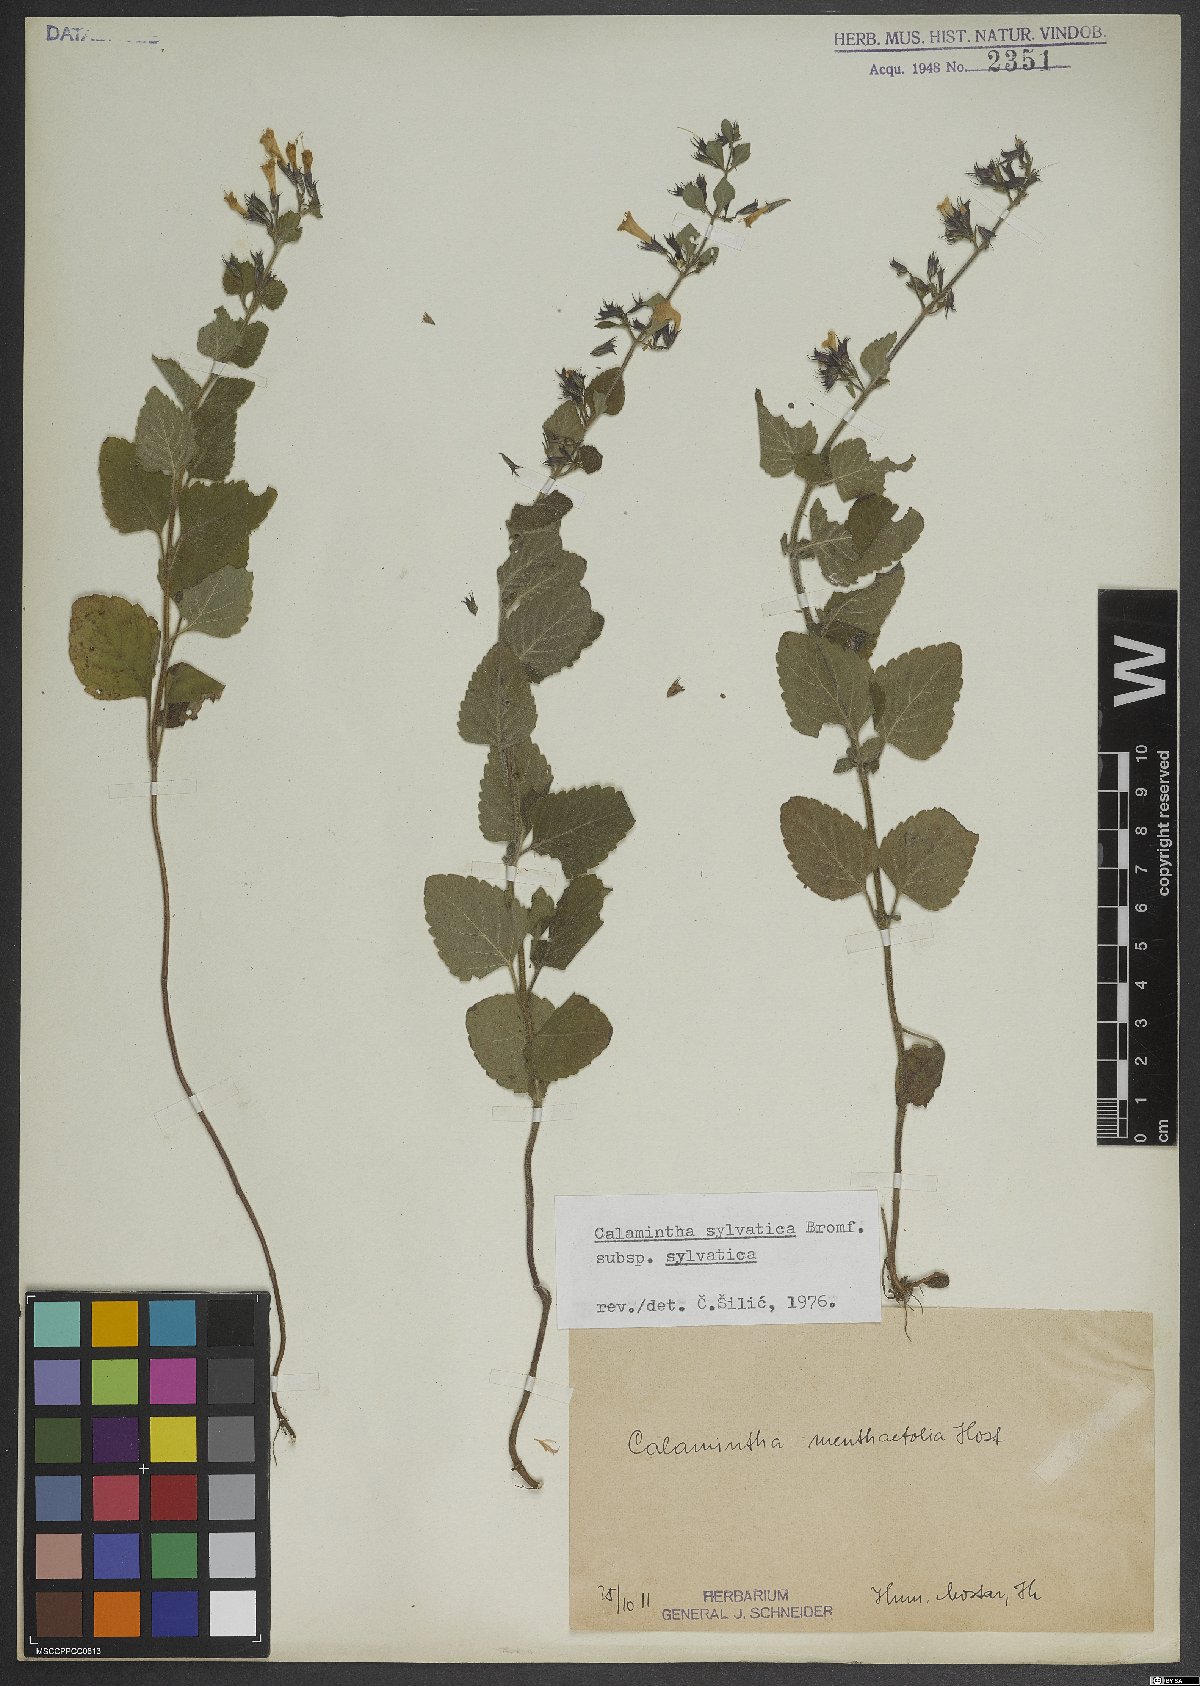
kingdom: Plantae
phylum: Tracheophyta
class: Magnoliopsida
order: Lamiales
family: Lamiaceae
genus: Clinopodium
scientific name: Clinopodium menthifolium
